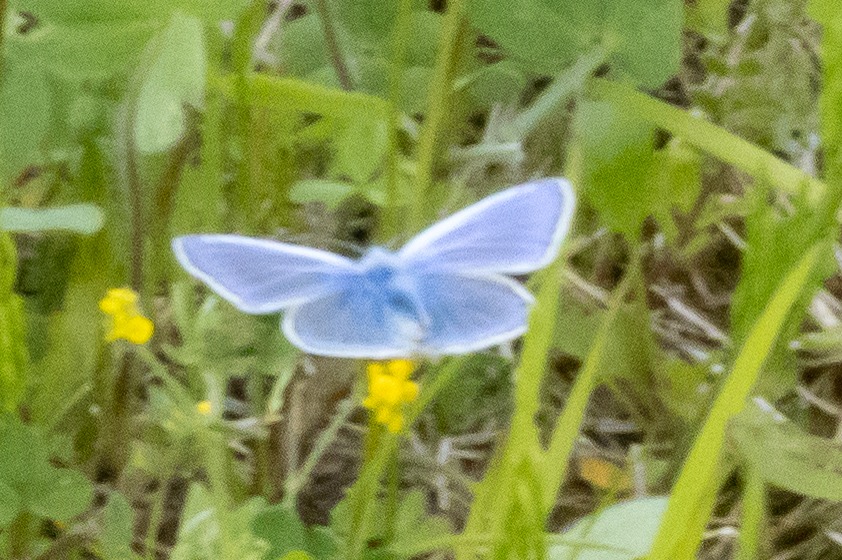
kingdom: Animalia
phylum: Arthropoda
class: Insecta
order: Lepidoptera
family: Lycaenidae
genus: Polyommatus
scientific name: Polyommatus icarus
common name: Almindelig blåfugl
